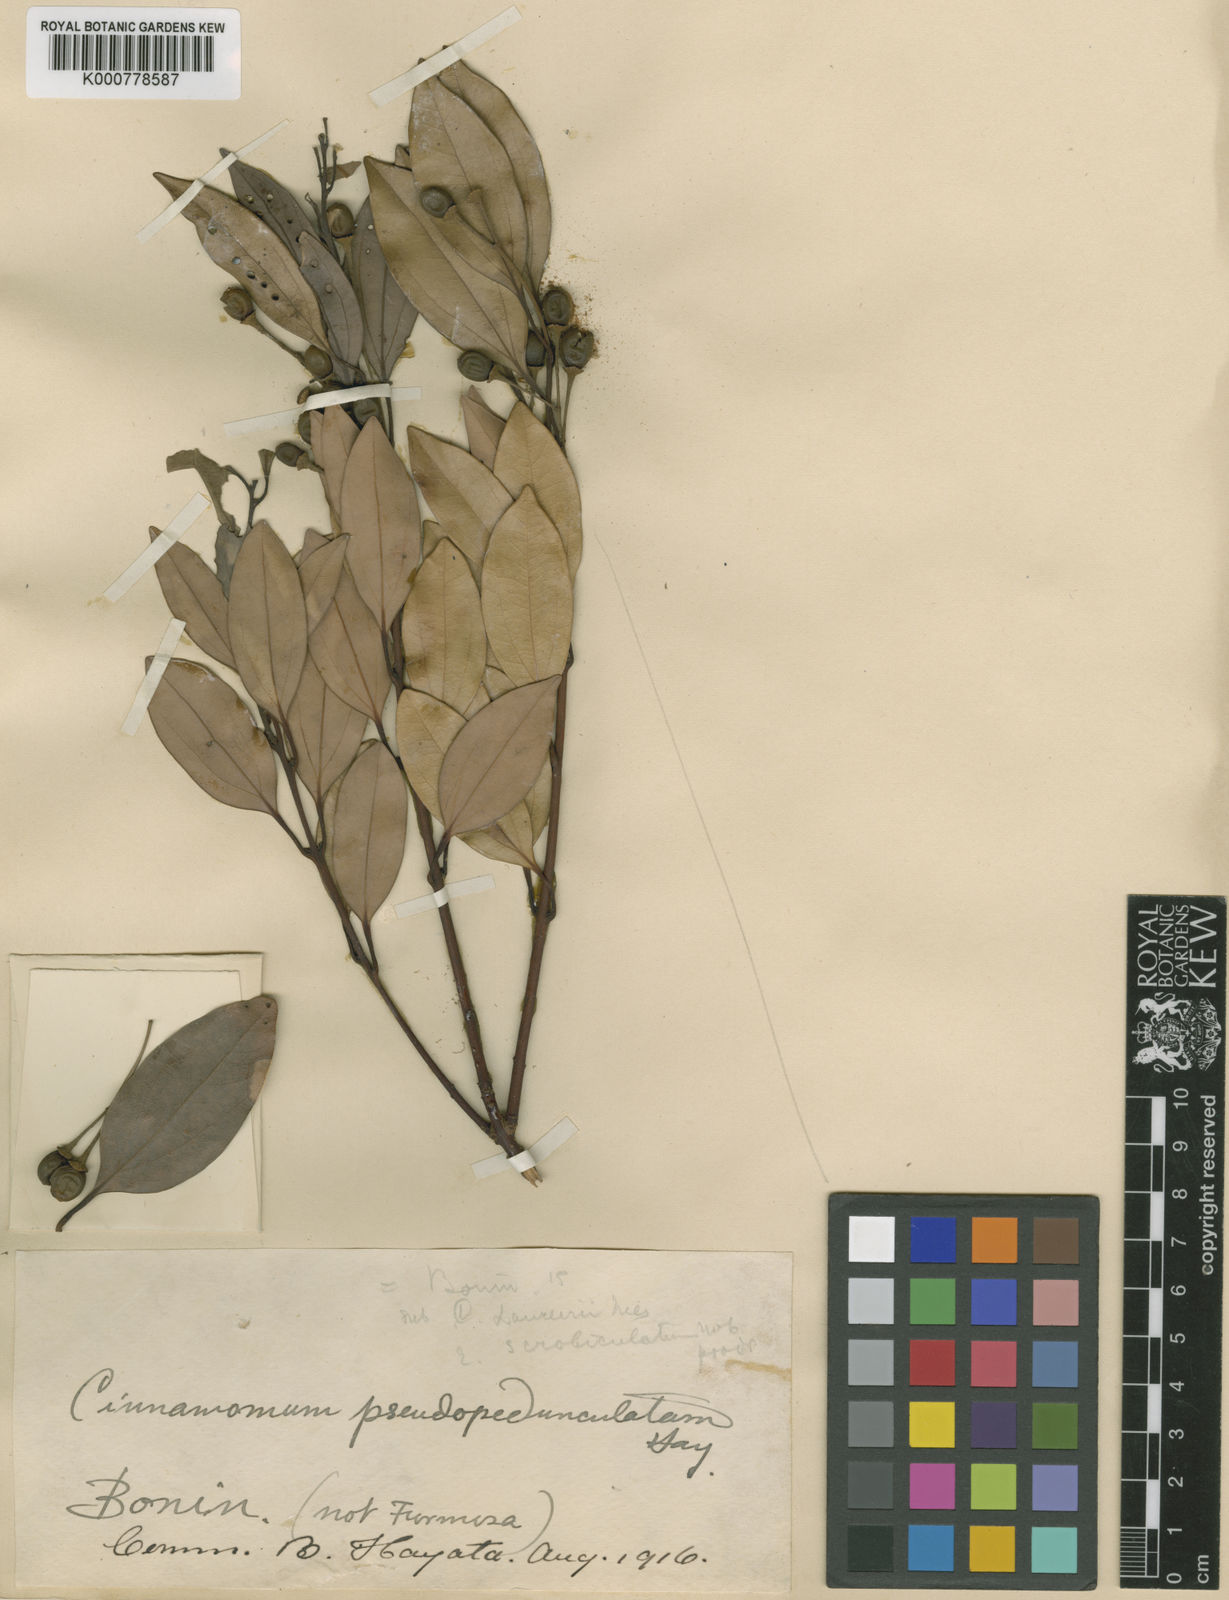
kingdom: Plantae
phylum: Tracheophyta
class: Magnoliopsida
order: Laurales
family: Lauraceae
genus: Cinnamomum
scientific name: Cinnamomum pseudopedunculatum
